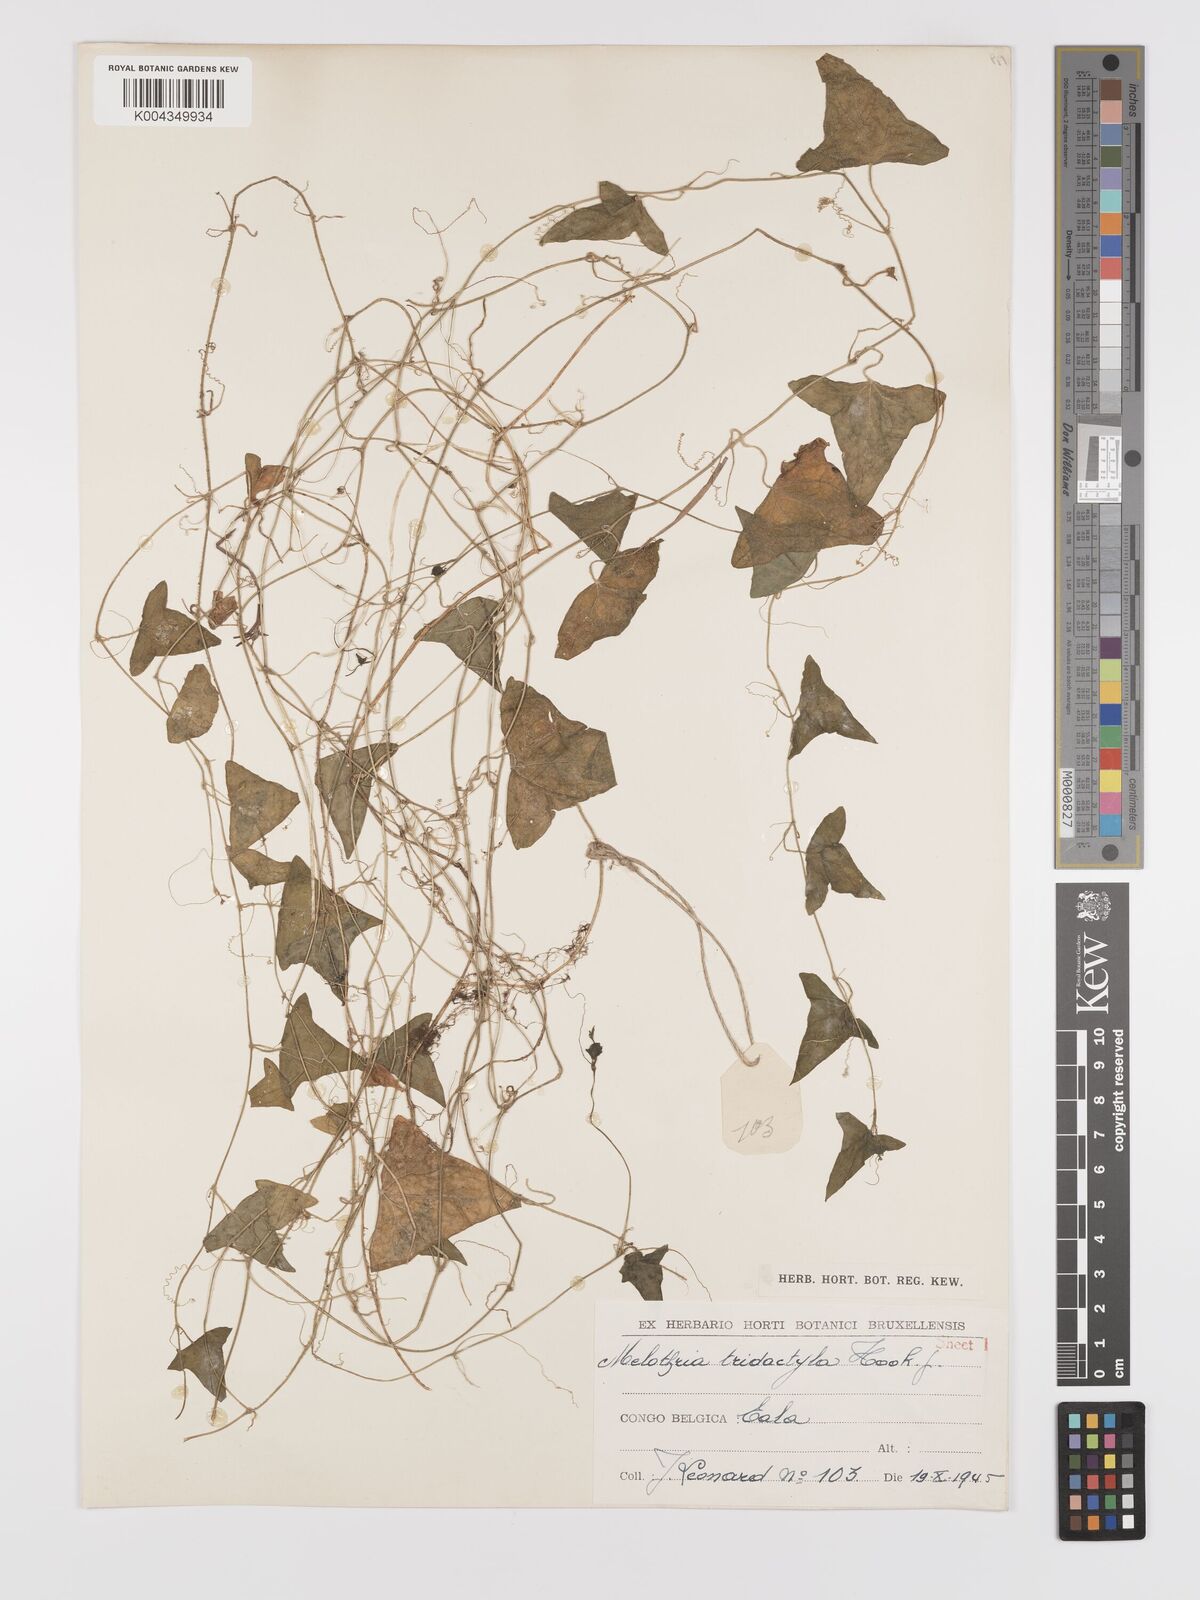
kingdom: Plantae
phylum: Tracheophyta
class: Magnoliopsida
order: Cucurbitales
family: Cucurbitaceae
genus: Zehneria
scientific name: Zehneria thwaitesii
